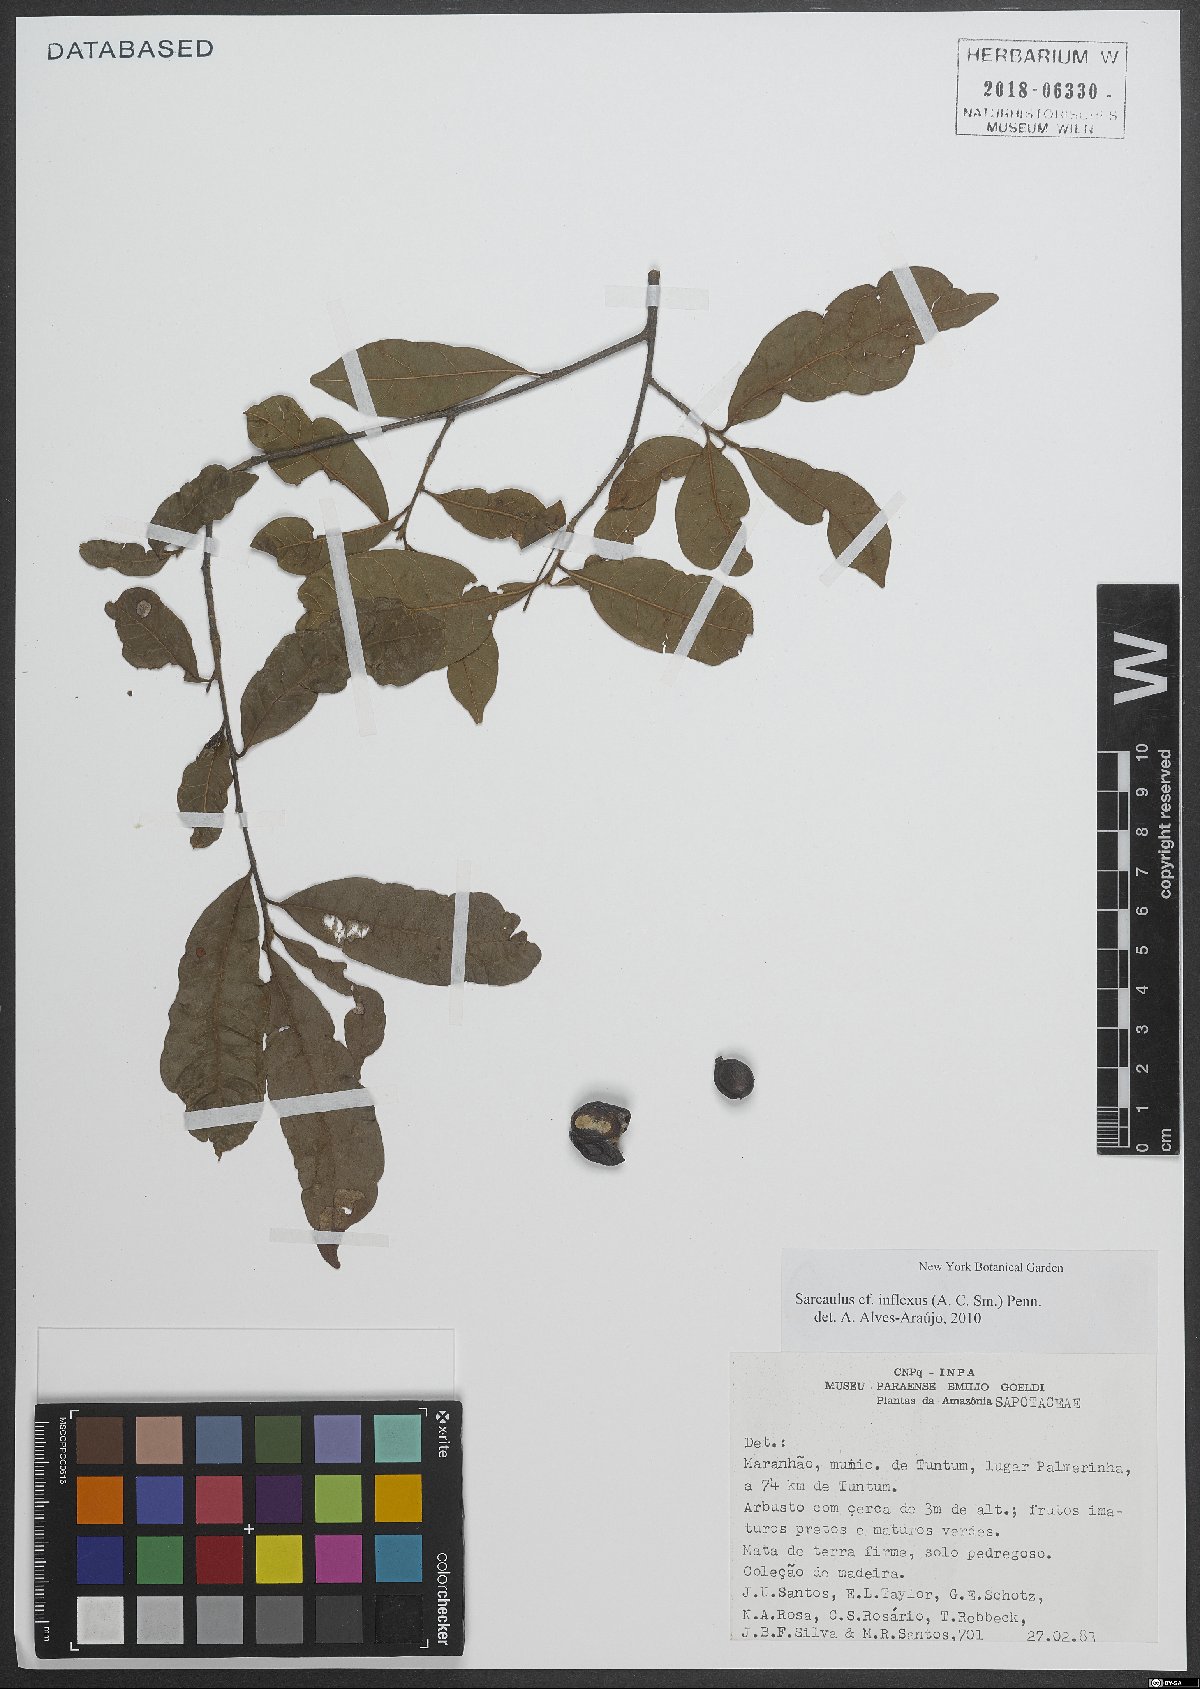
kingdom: Plantae
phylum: Tracheophyta
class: Magnoliopsida
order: Ericales
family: Sapotaceae
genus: Sarcaulus
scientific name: Sarcaulus inflexus
